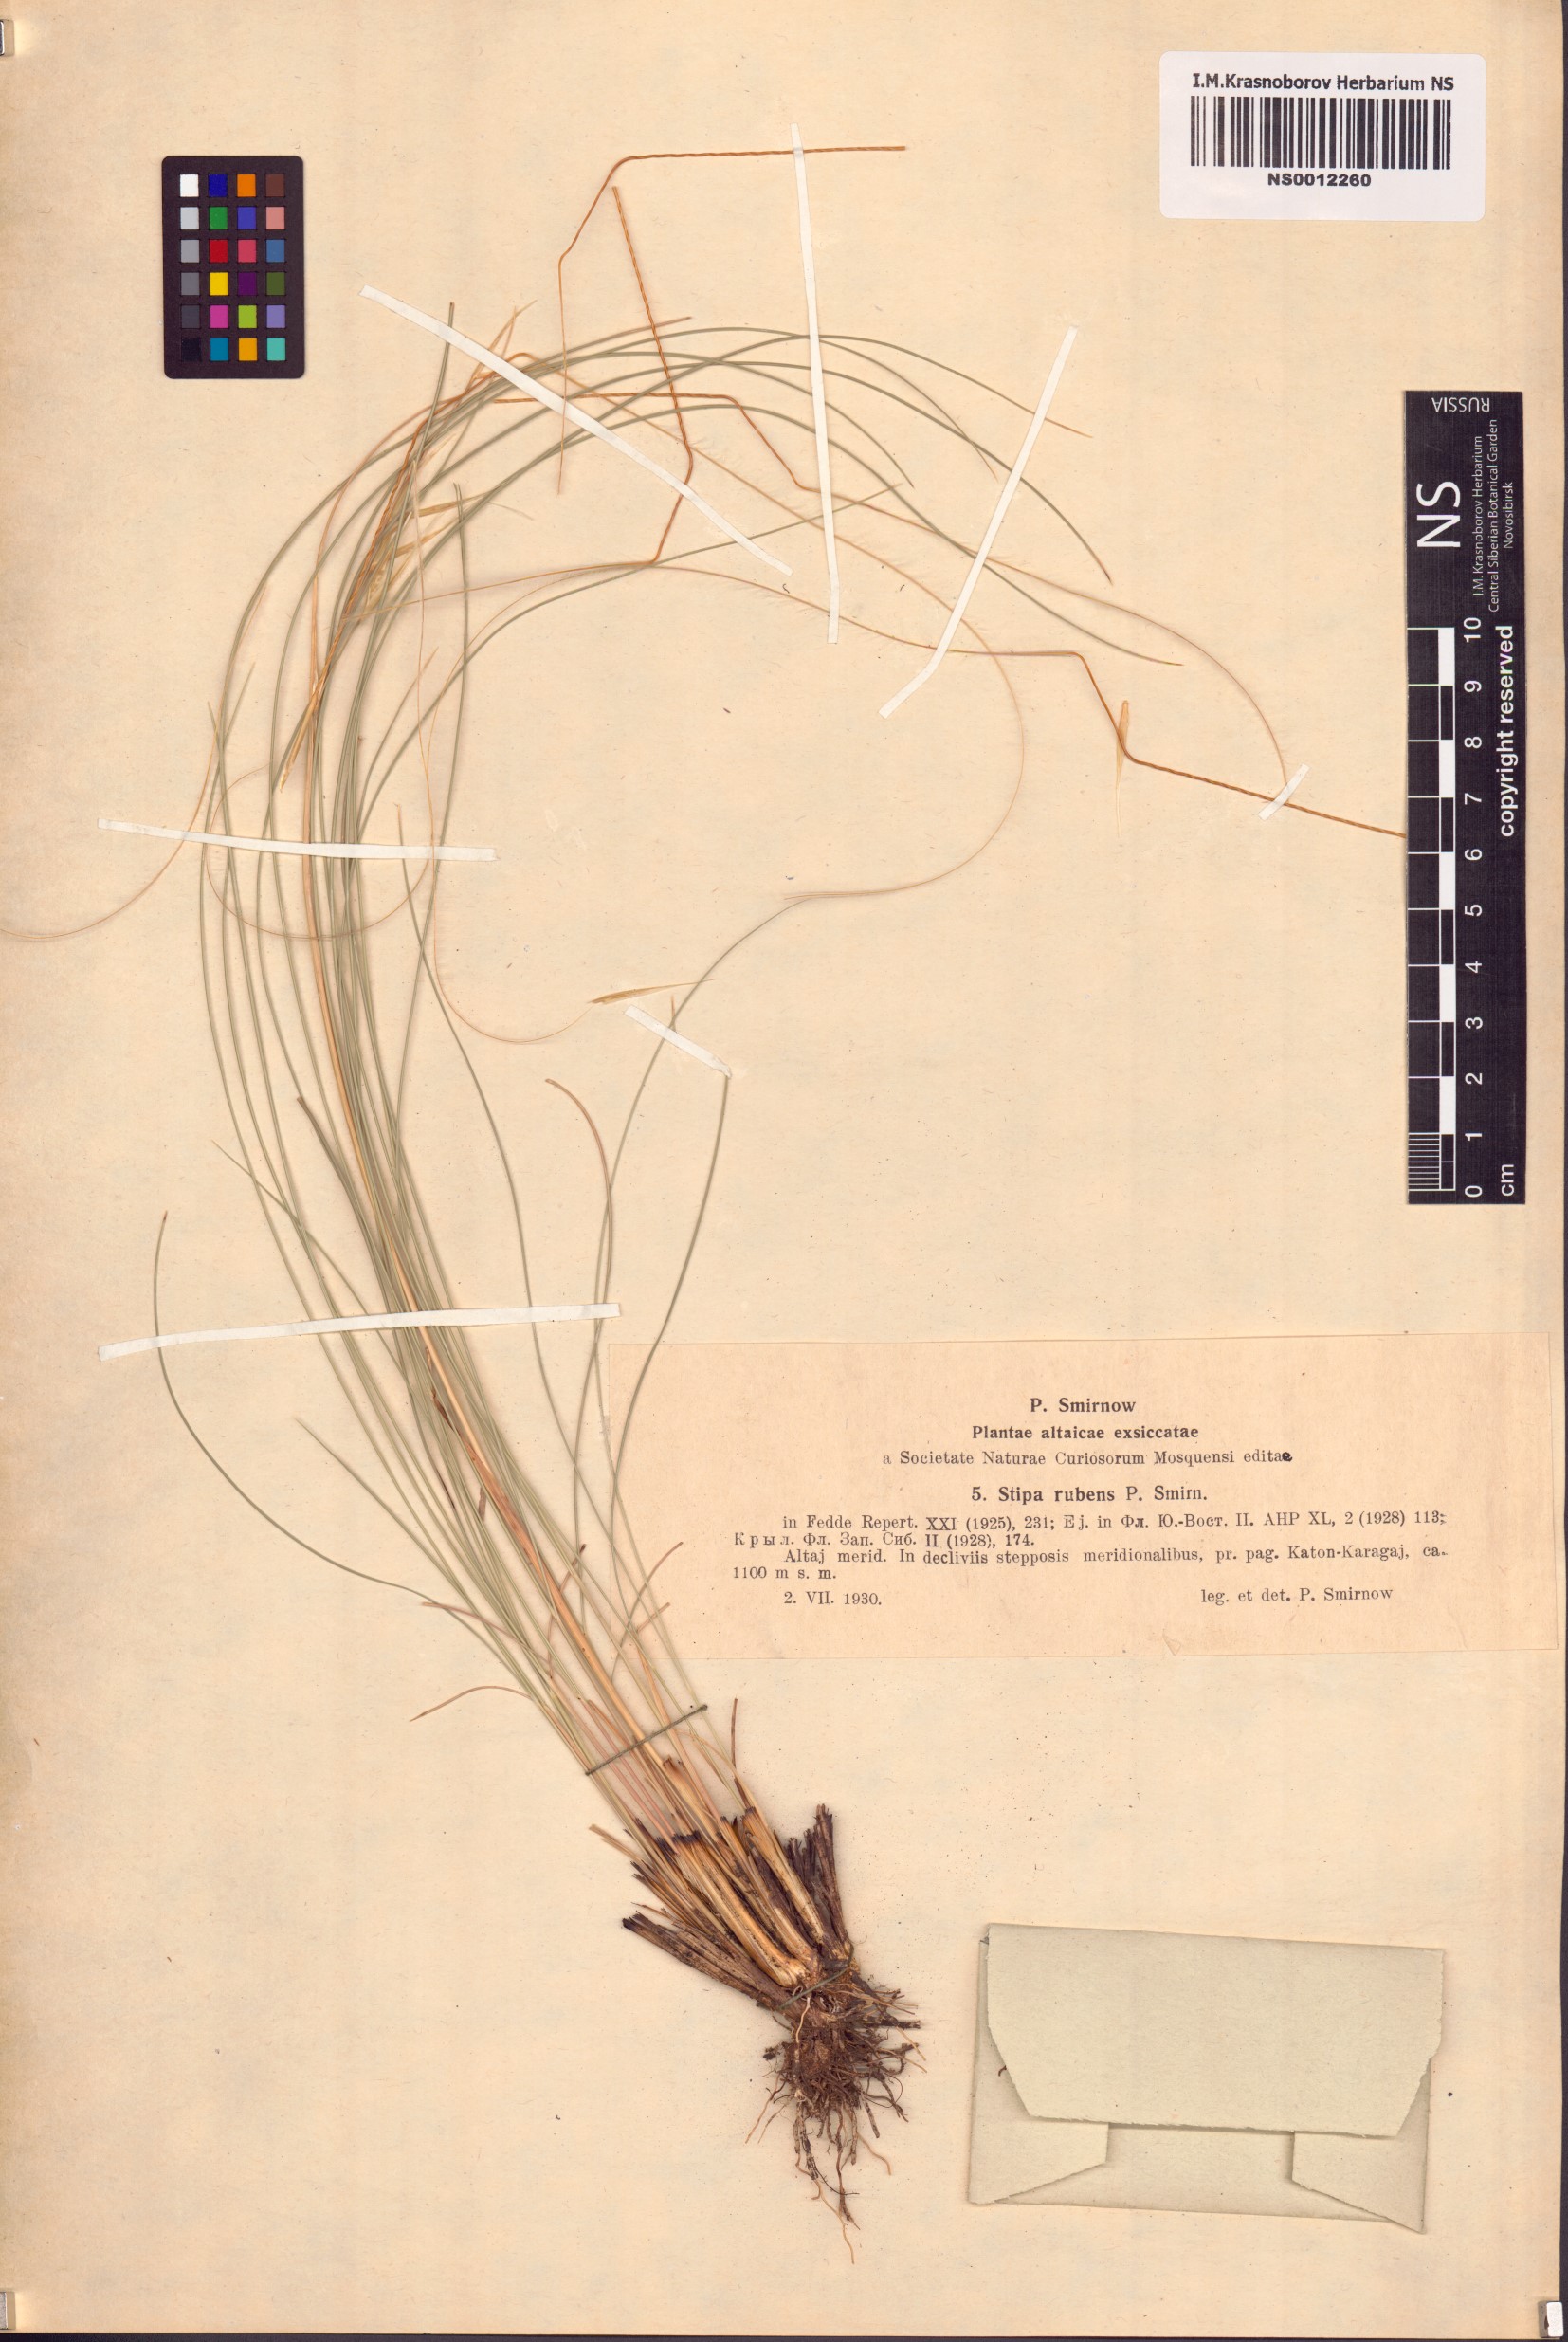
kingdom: Plantae
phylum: Tracheophyta
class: Liliopsida
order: Poales
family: Poaceae
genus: Stipa
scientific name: Stipa zalesskyi
